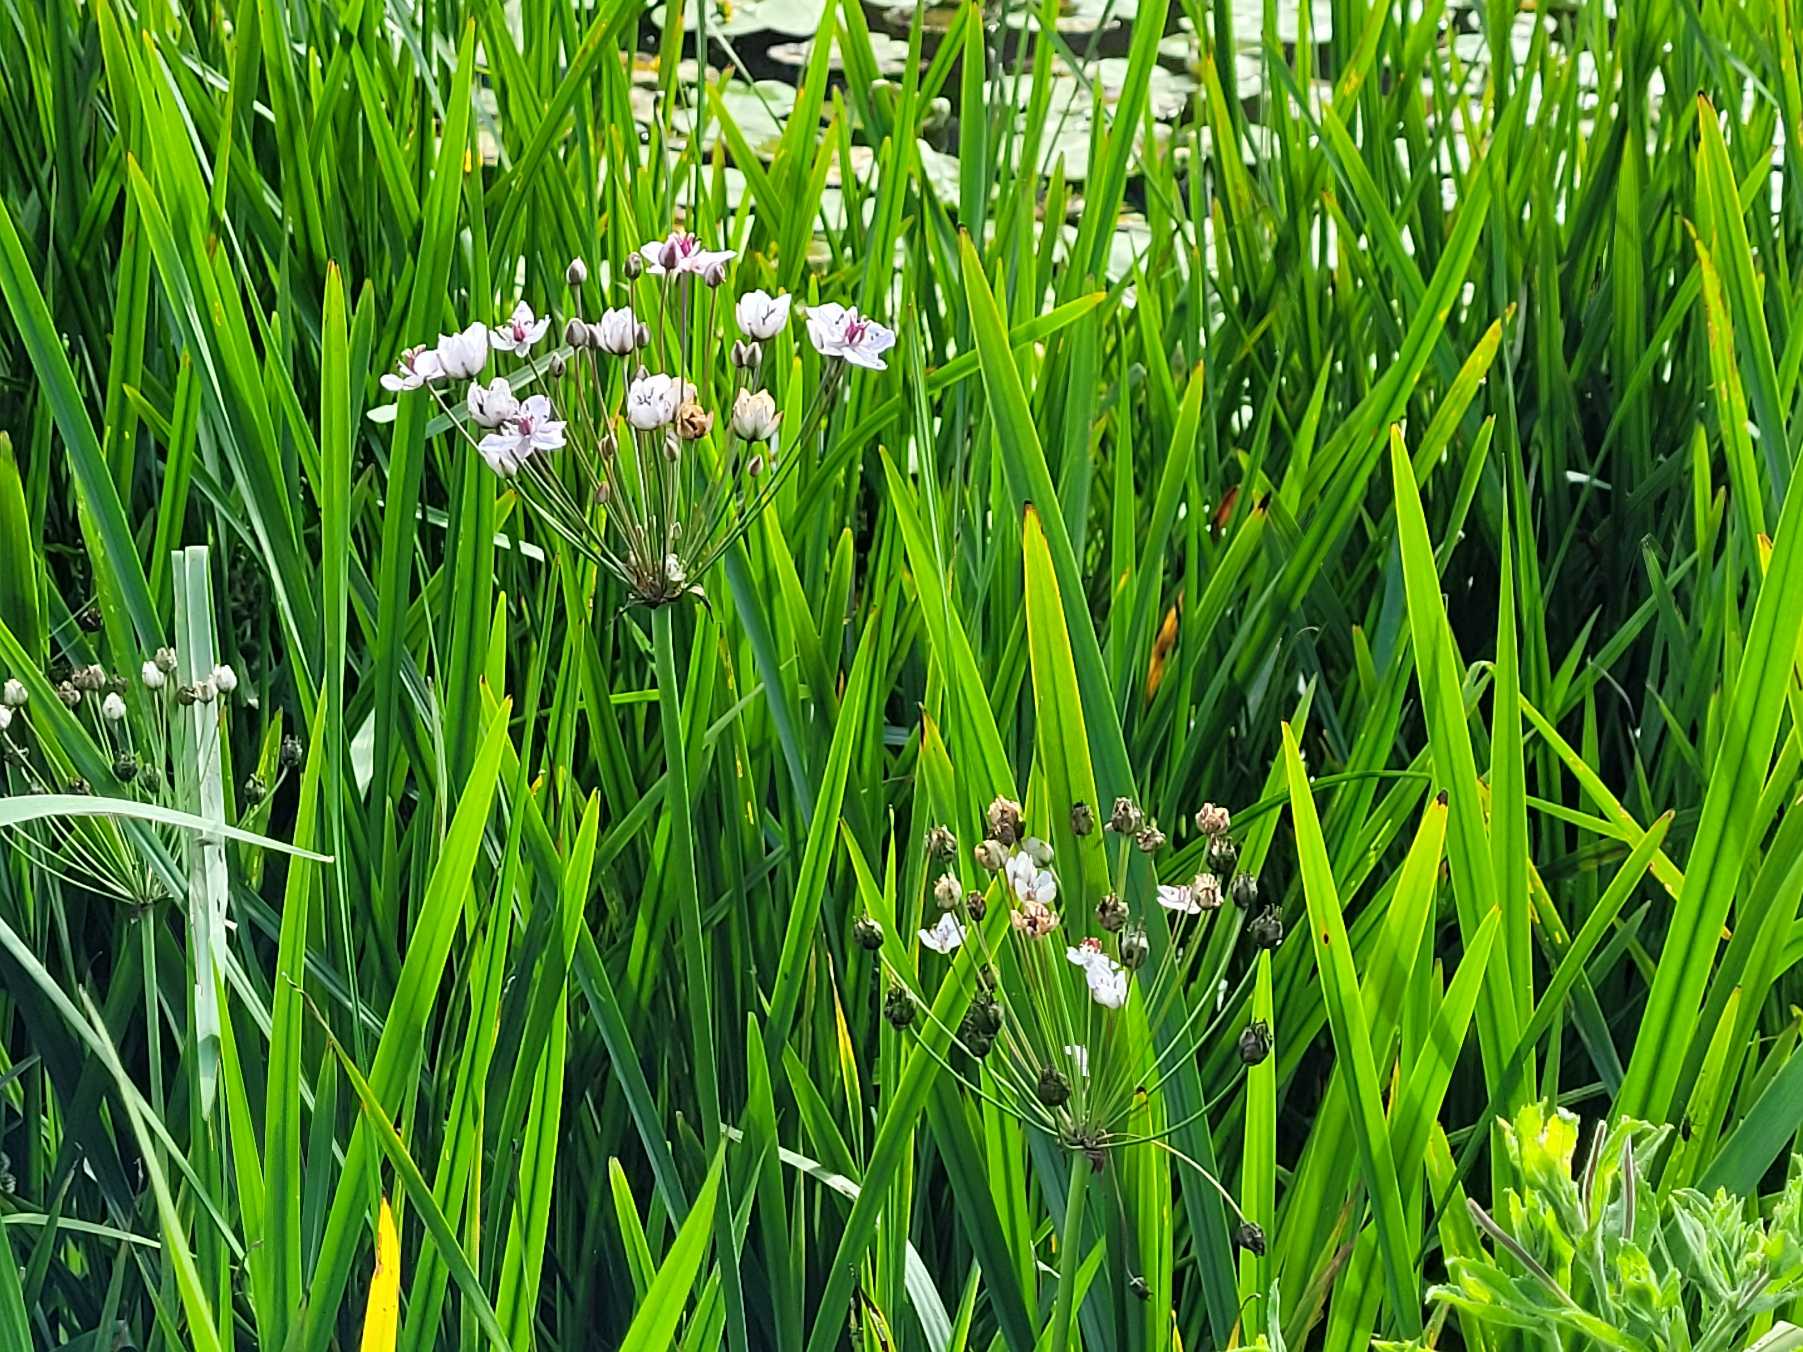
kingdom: Plantae
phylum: Tracheophyta
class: Liliopsida
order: Alismatales
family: Butomaceae
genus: Butomus
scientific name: Butomus umbellatus
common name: Brudelys
